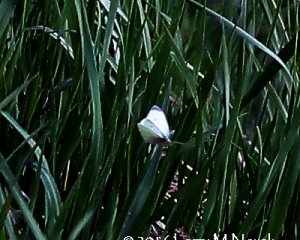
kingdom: Animalia
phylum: Arthropoda
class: Insecta
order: Lepidoptera
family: Pieridae
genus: Pieris
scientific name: Pieris rapae
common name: Cabbage White
